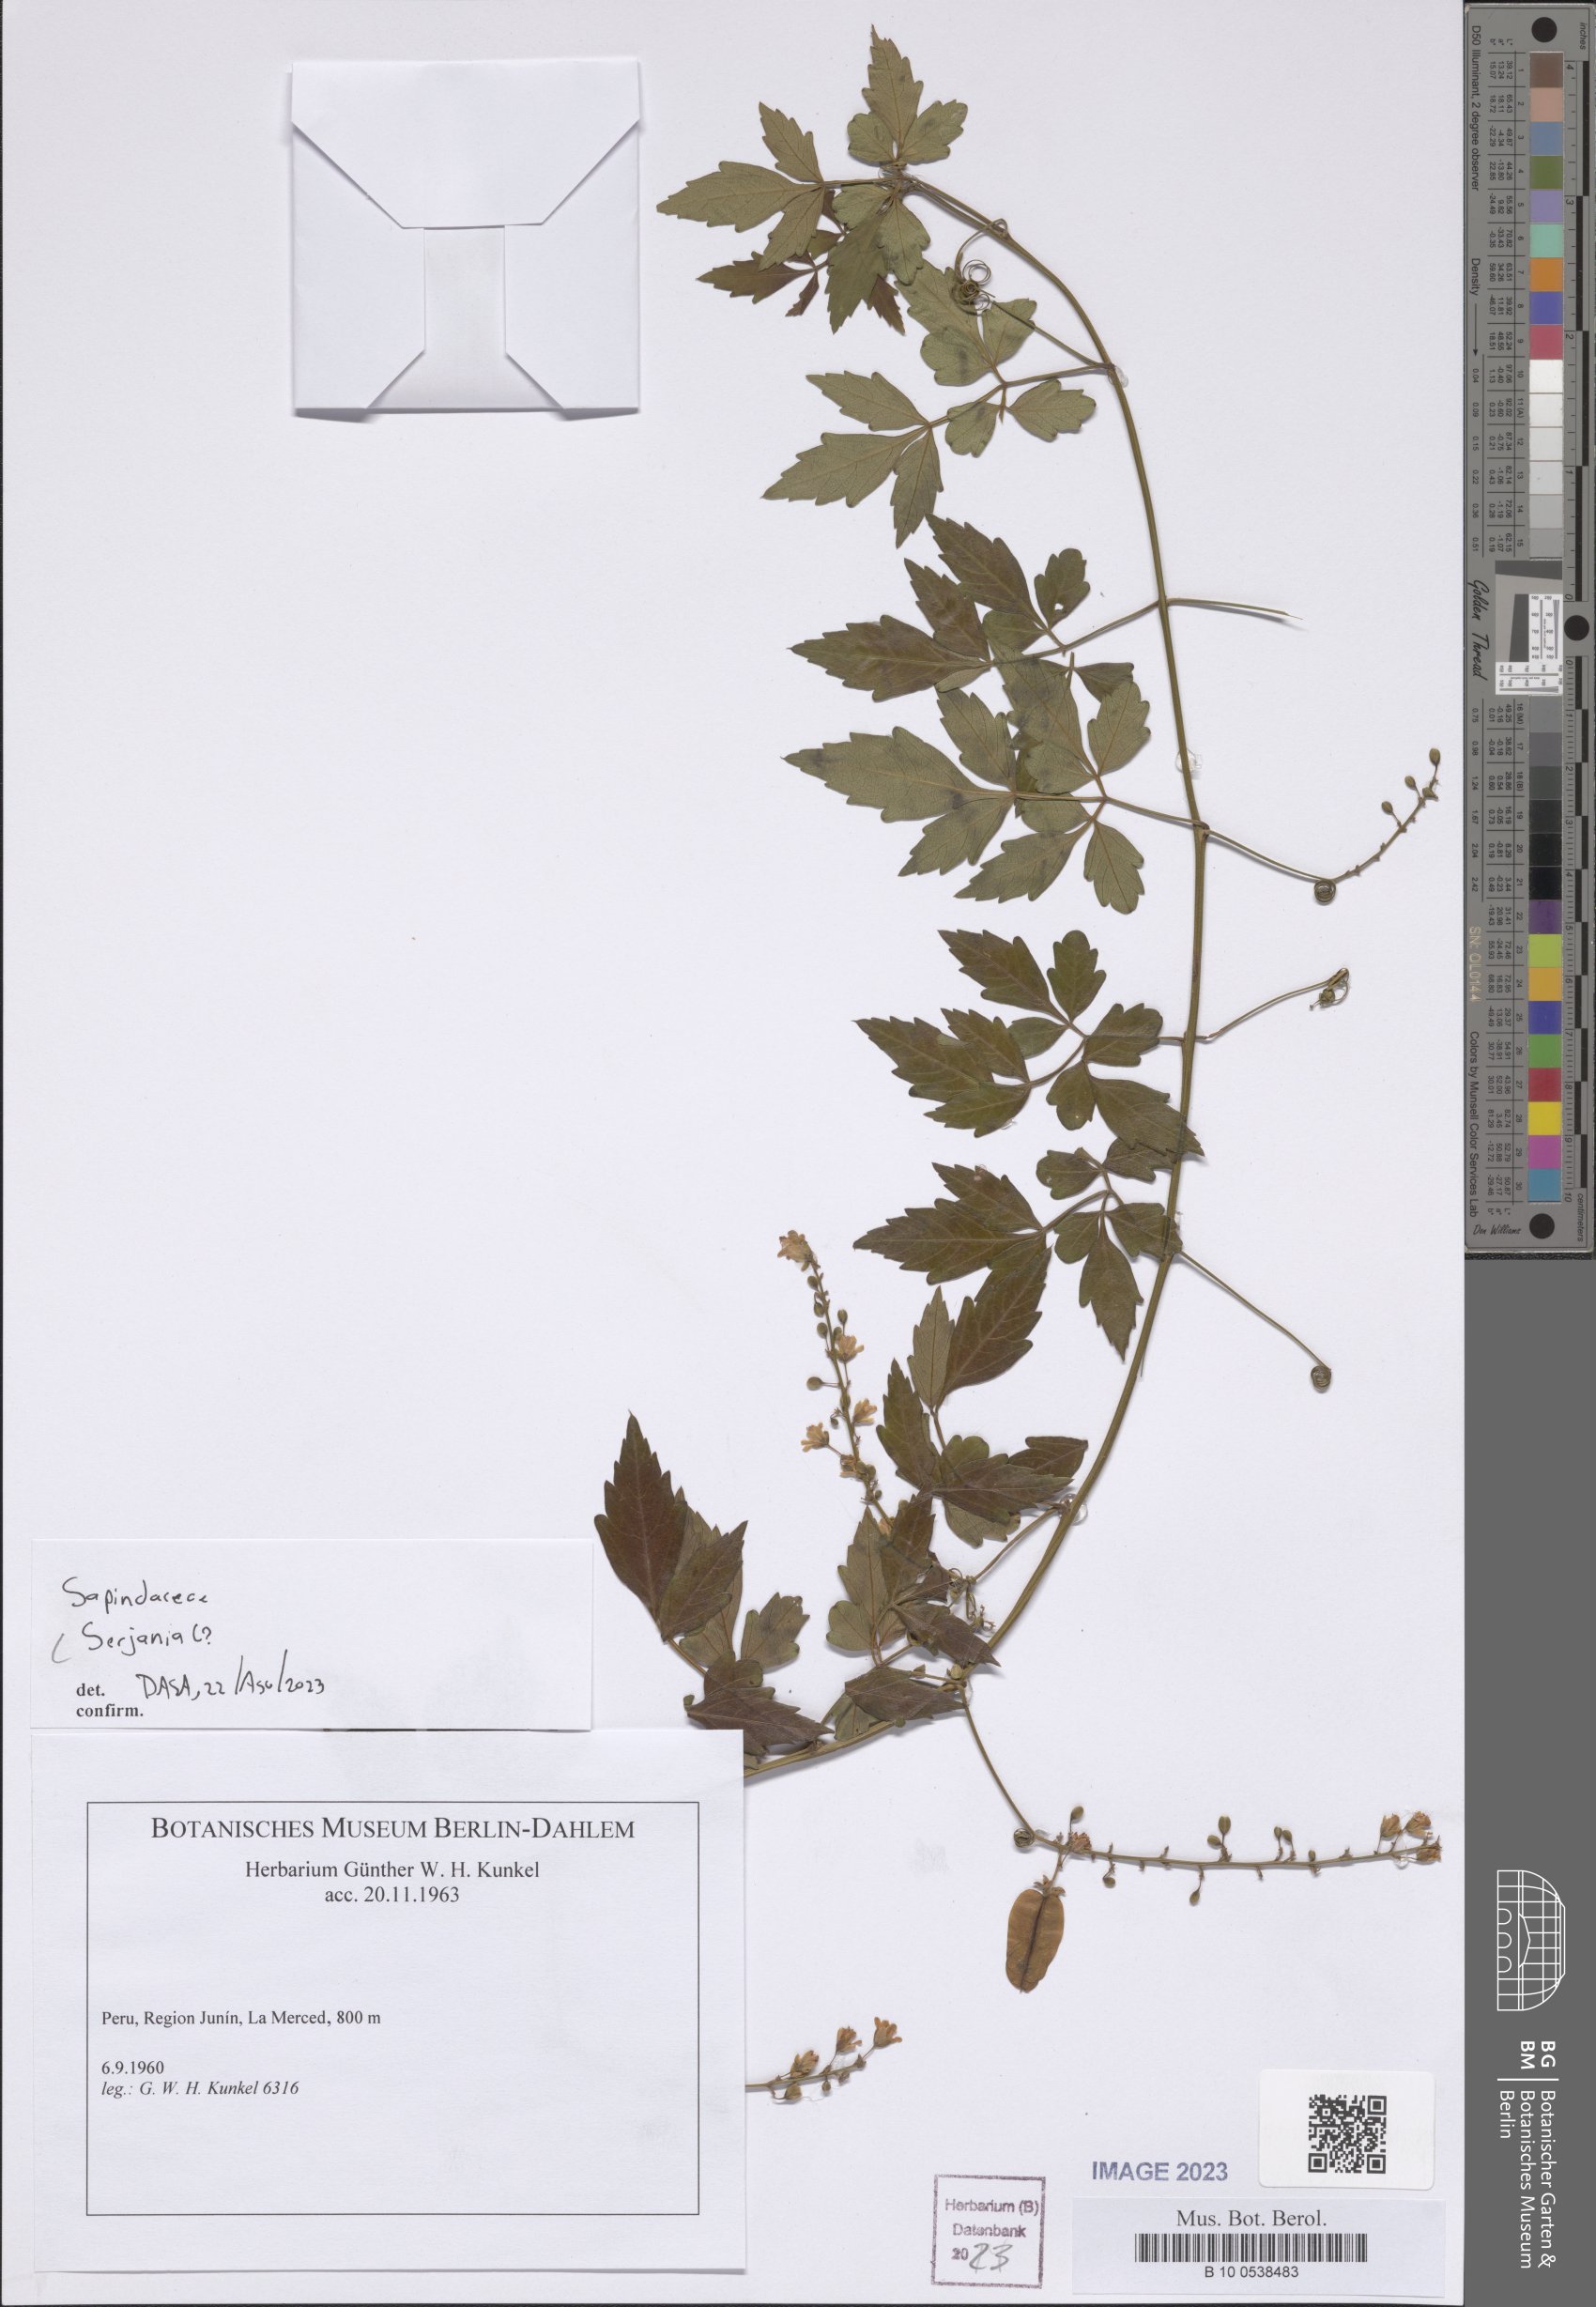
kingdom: Plantae
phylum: Tracheophyta
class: Magnoliopsida
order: Sapindales
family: Sapindaceae
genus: Serjania
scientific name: Serjania
